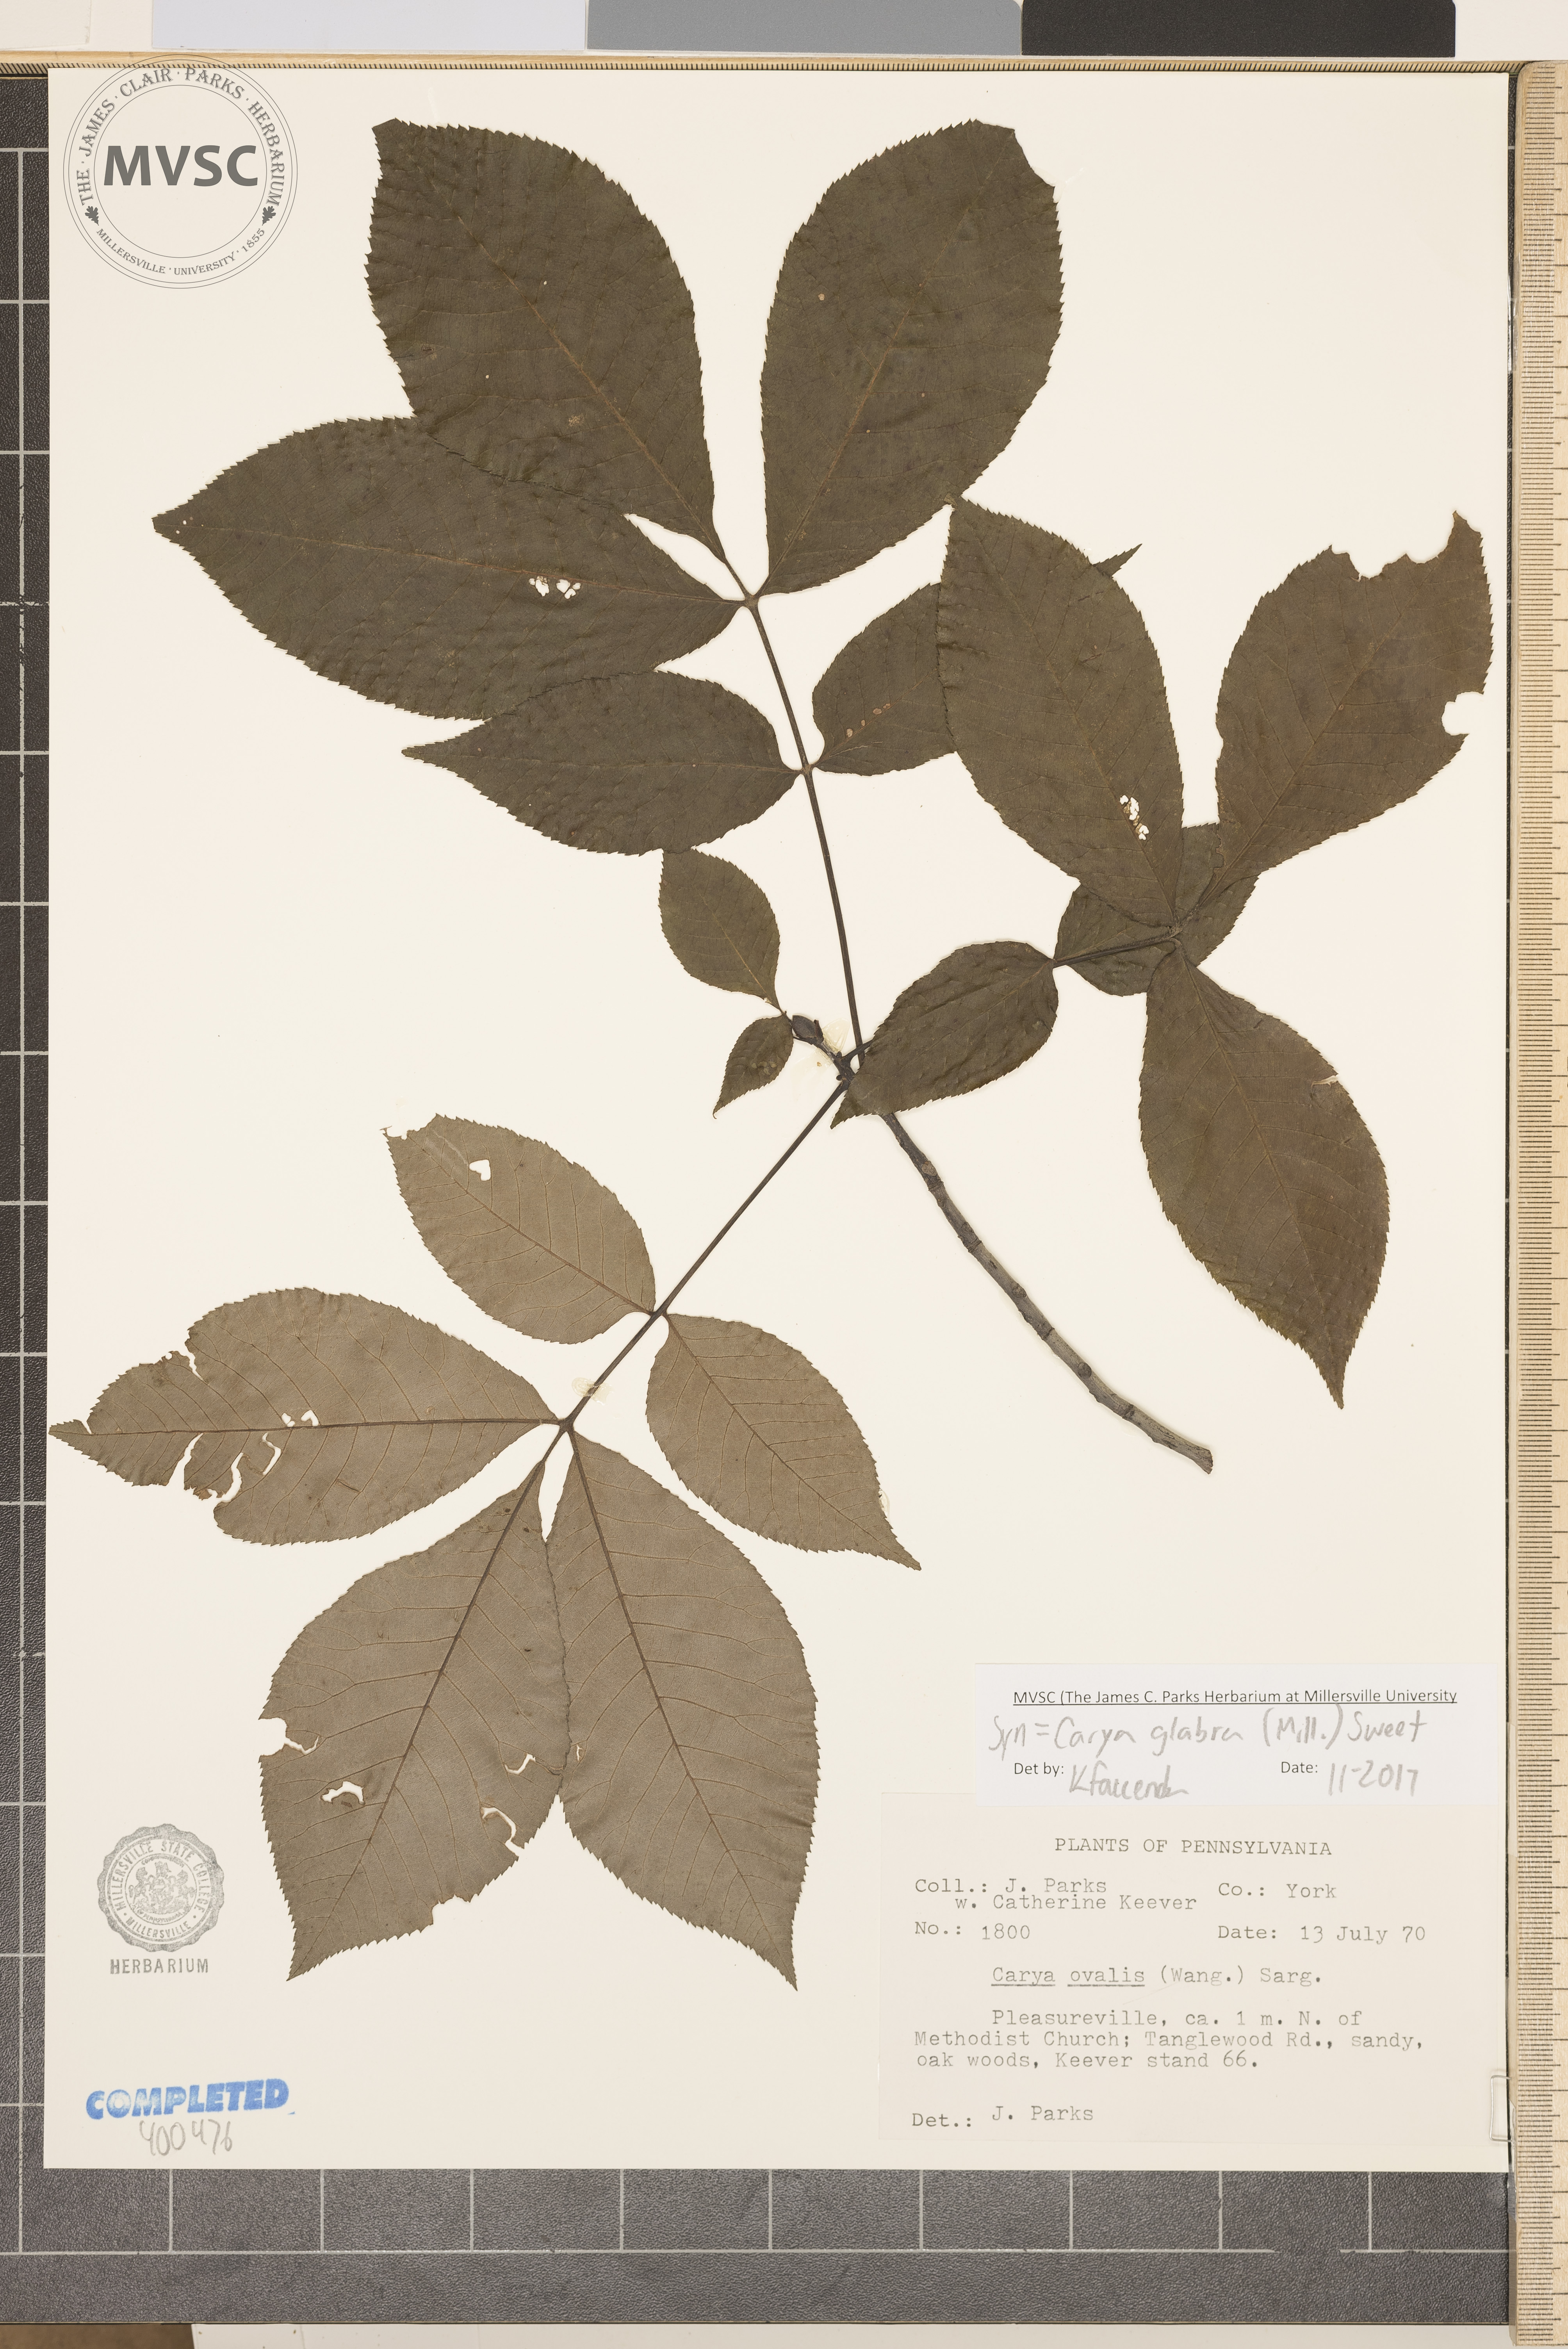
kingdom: Plantae
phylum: Tracheophyta
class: Magnoliopsida
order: Fagales
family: Juglandaceae
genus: Carya
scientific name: Carya glabra
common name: red hickory
